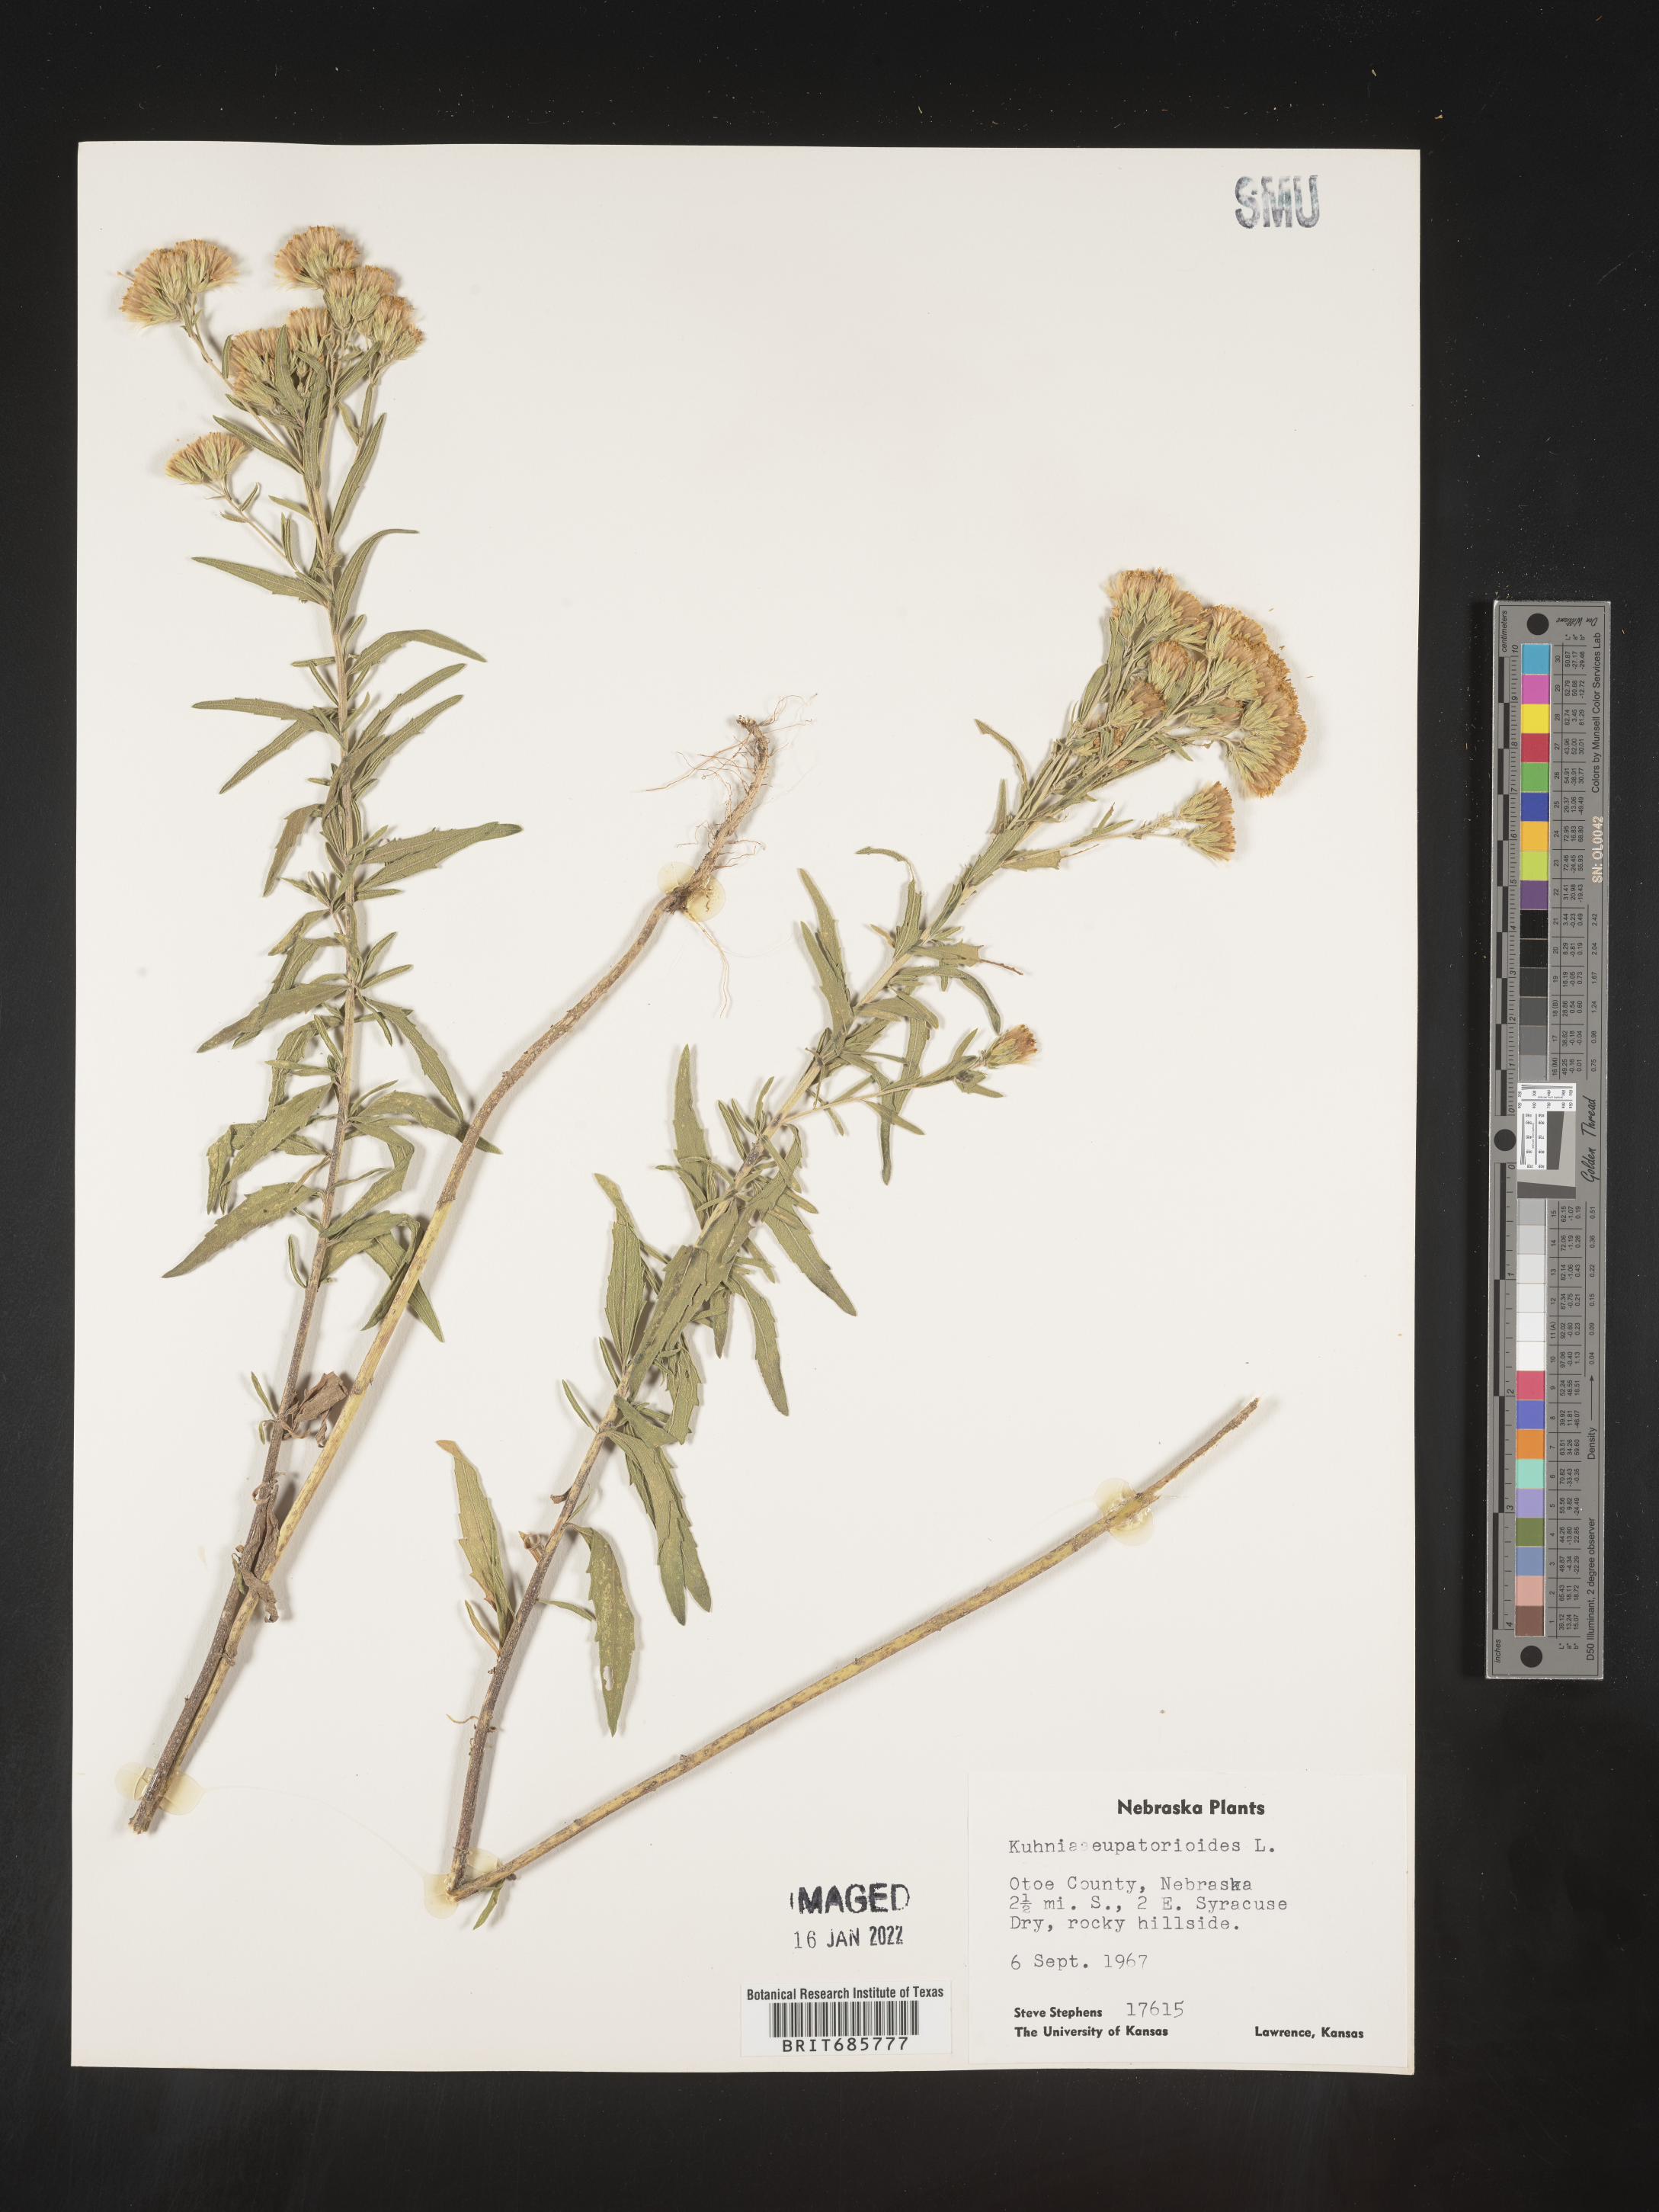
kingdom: Plantae
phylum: Tracheophyta
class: Magnoliopsida
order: Asterales
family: Asteraceae
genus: Brickellia
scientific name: Brickellia eupatorioides
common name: False boneset
